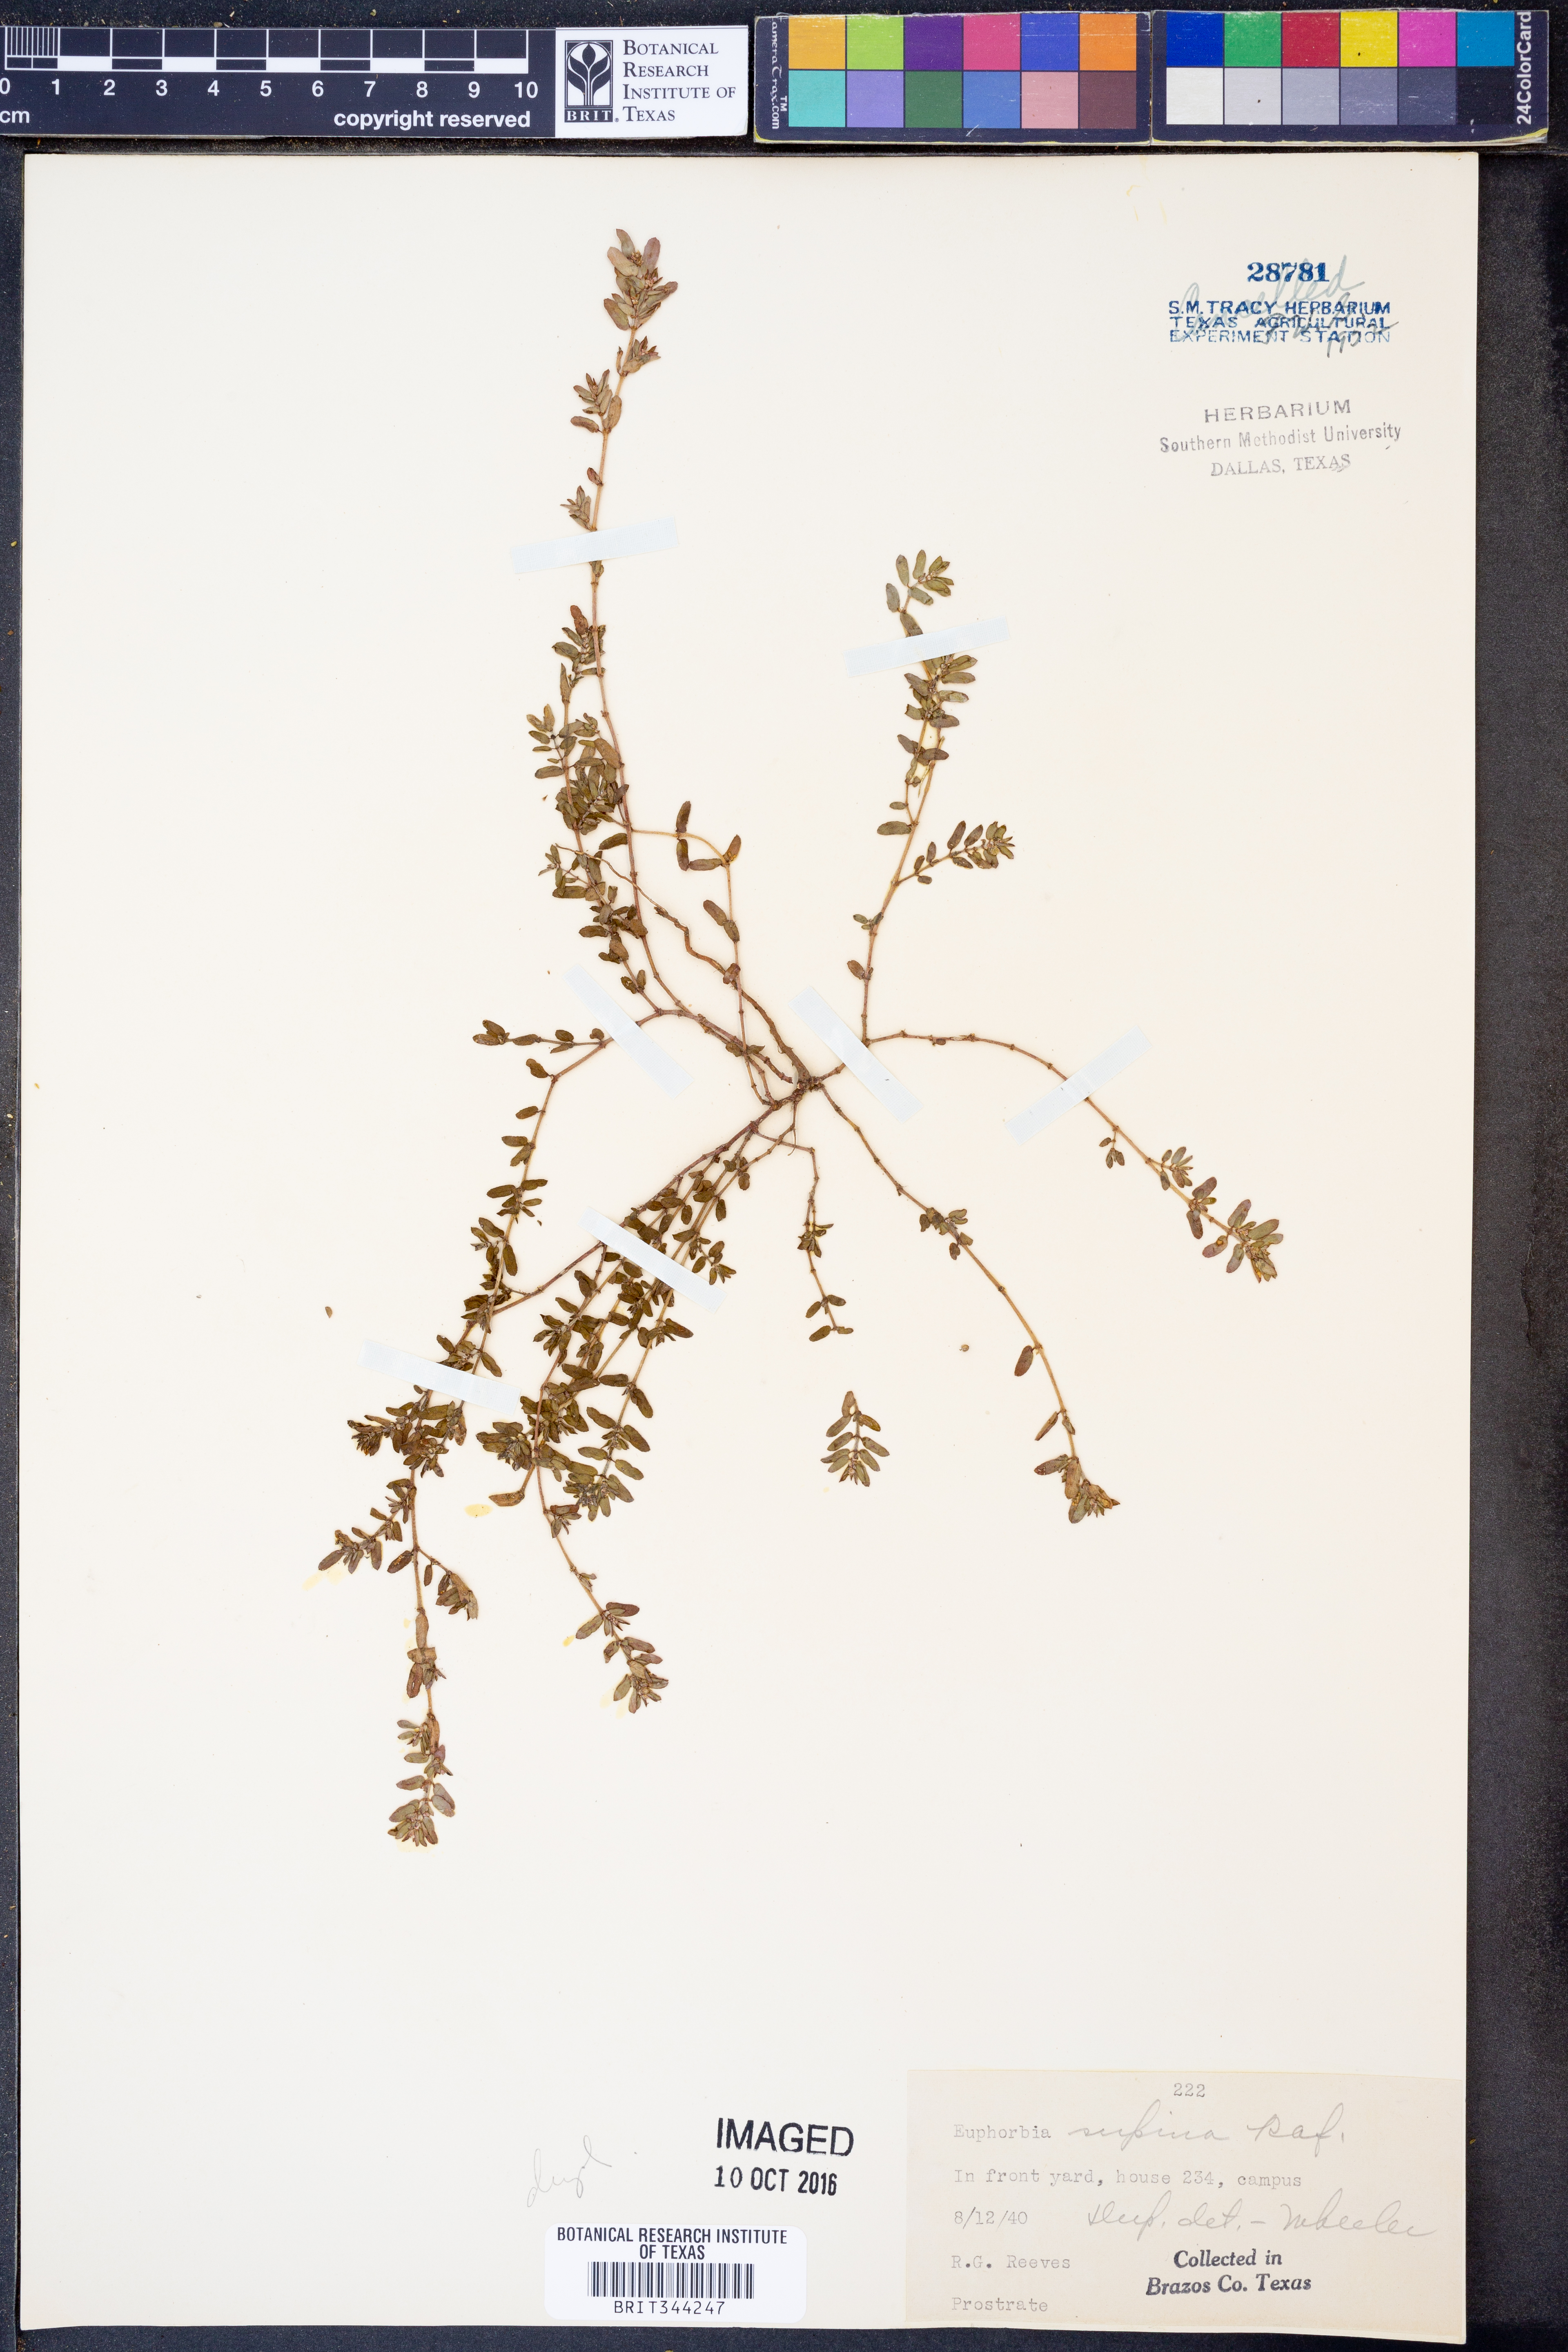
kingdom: Plantae
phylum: Tracheophyta
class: Magnoliopsida
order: Malpighiales
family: Euphorbiaceae
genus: Euphorbia
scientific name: Euphorbia maculata
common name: Spotted spurge
